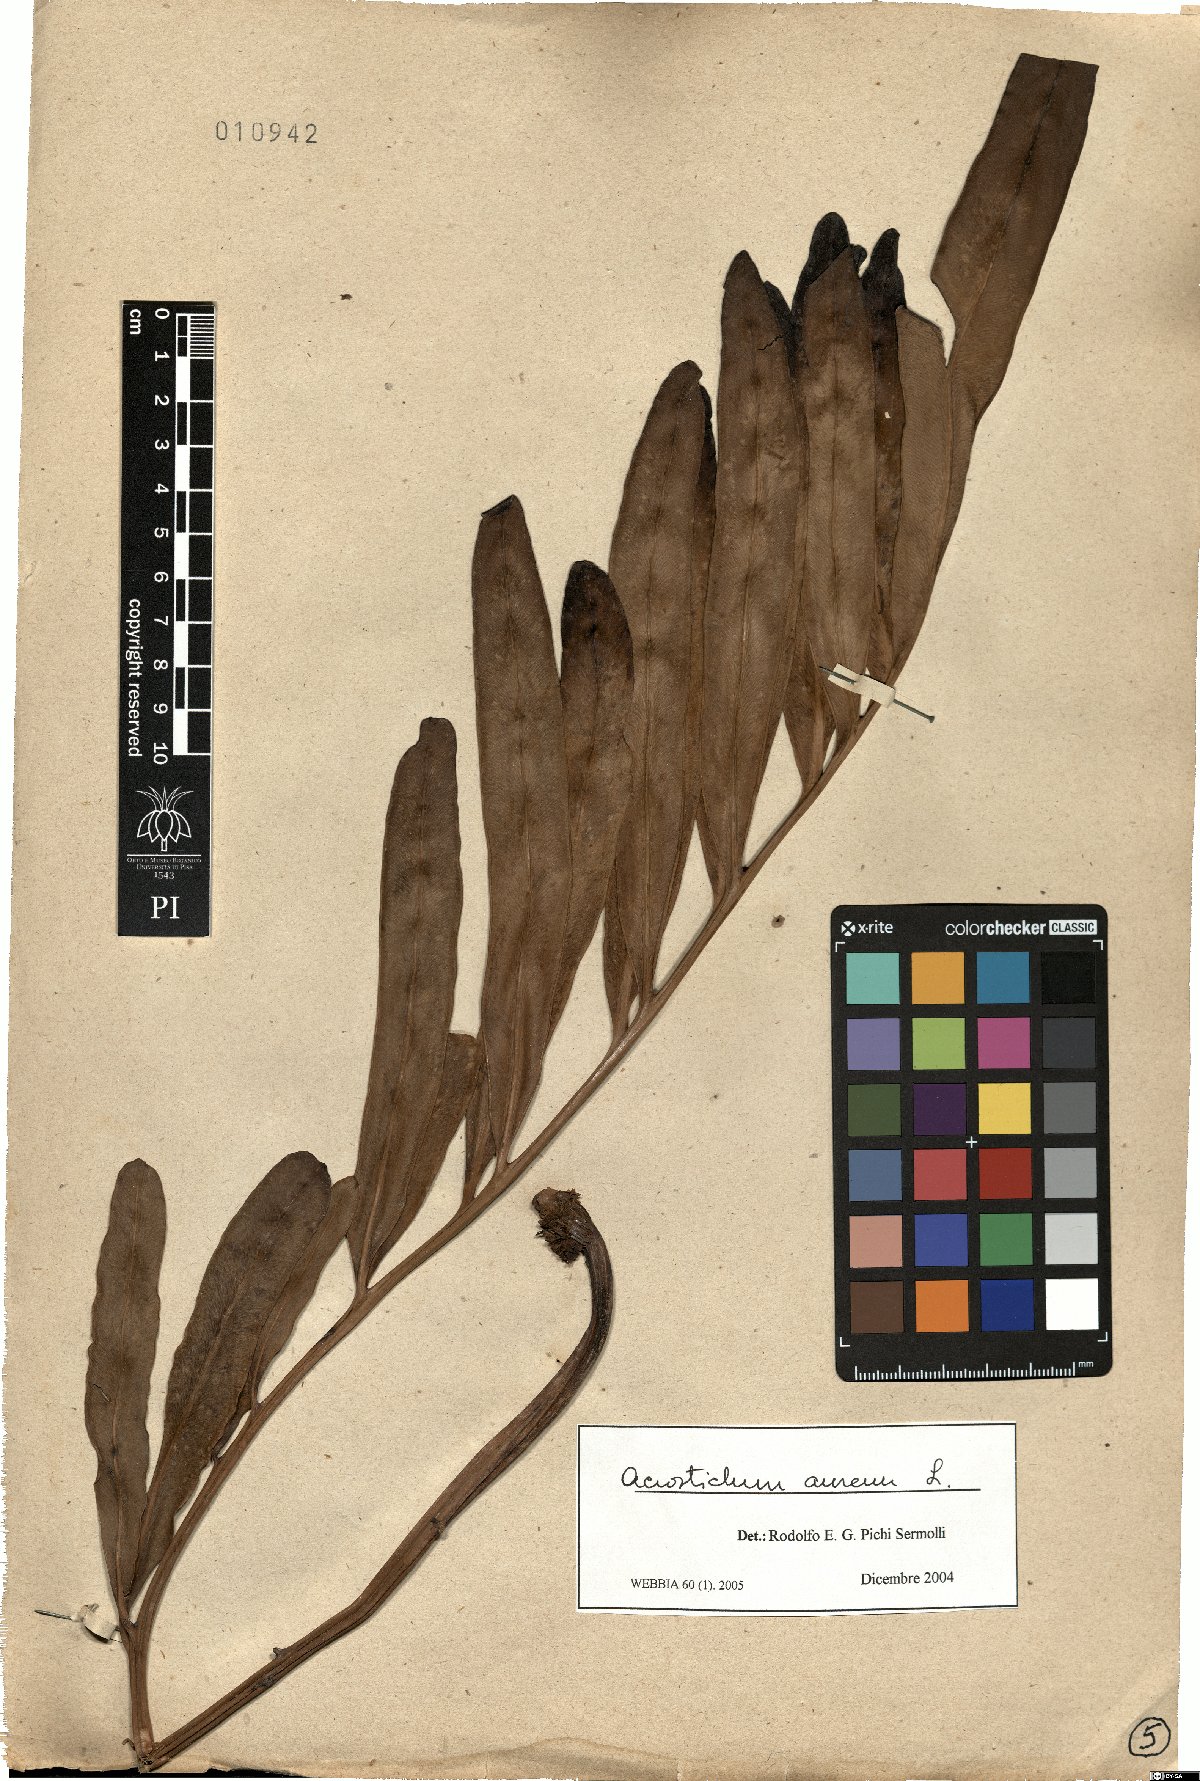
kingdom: Plantae
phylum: Tracheophyta
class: Polypodiopsida
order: Polypodiales
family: Pteridaceae
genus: Acrostichum
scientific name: Acrostichum aureum
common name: Leather fern
